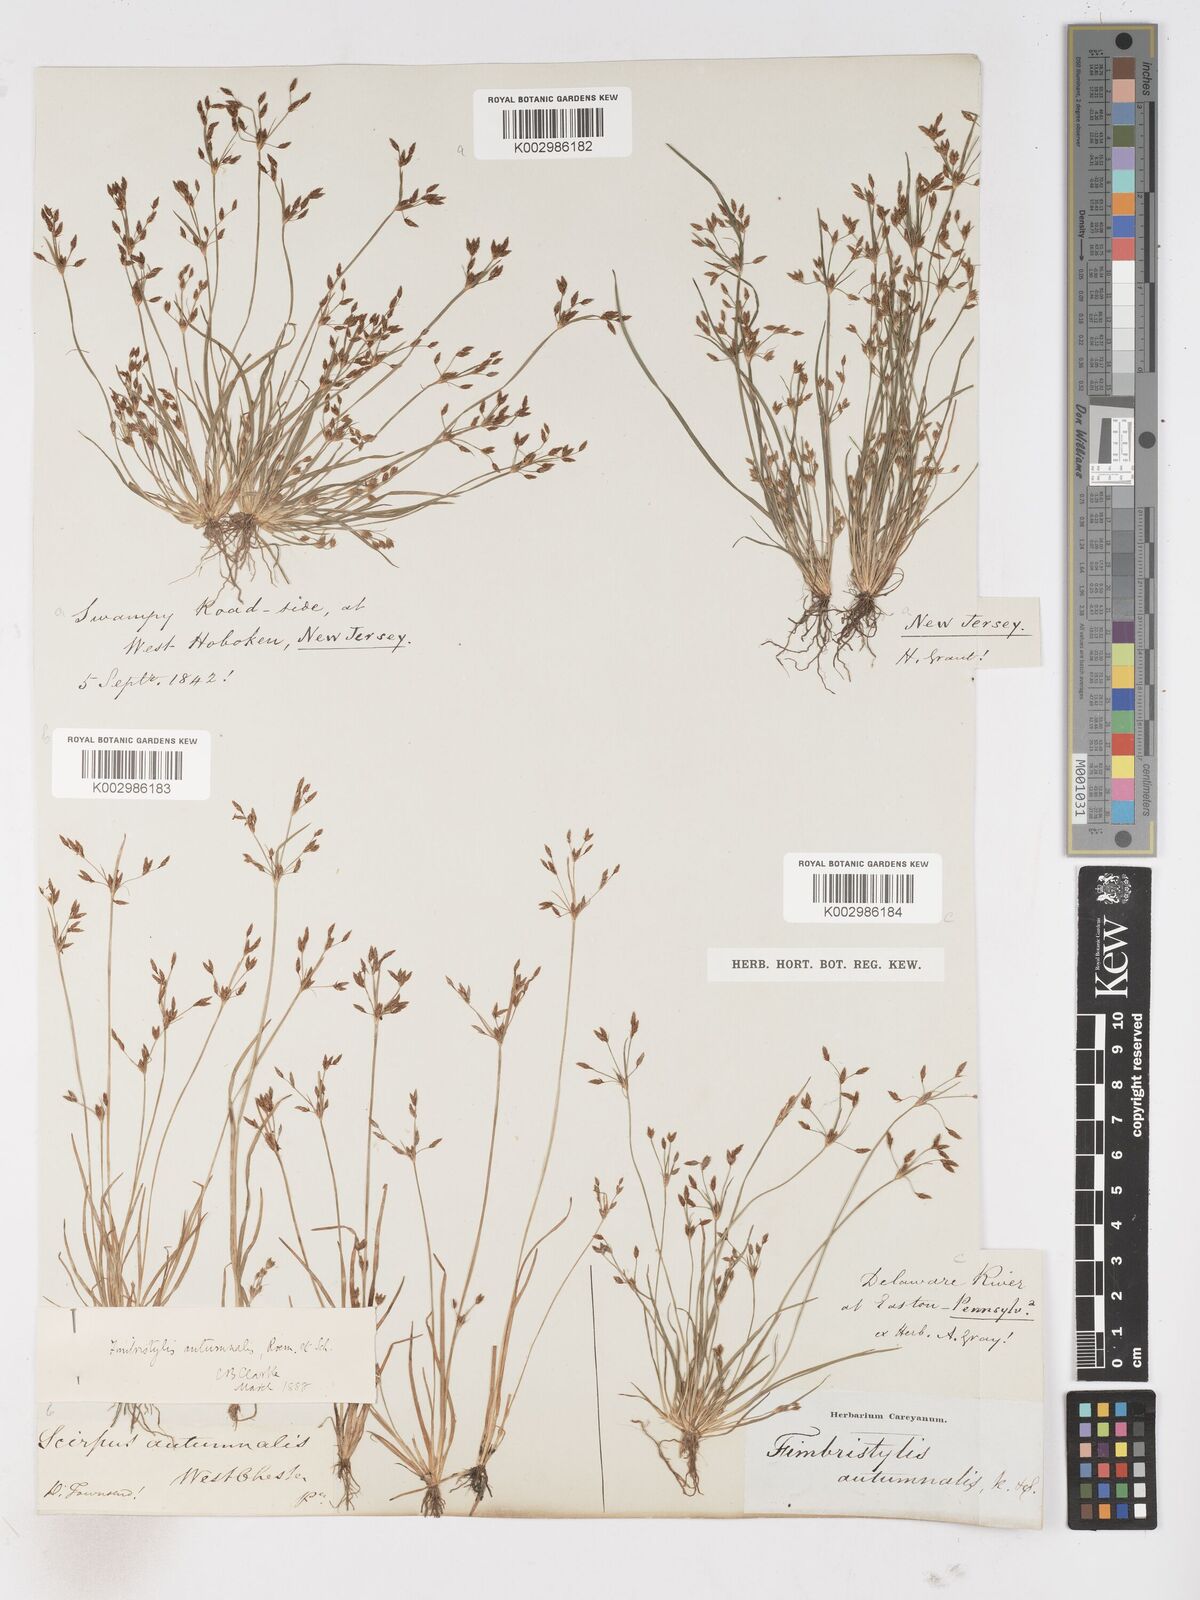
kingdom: Plantae
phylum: Tracheophyta
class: Liliopsida
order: Poales
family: Cyperaceae
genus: Fimbristylis
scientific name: Fimbristylis autumnalis
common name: Slender fimbristylis
